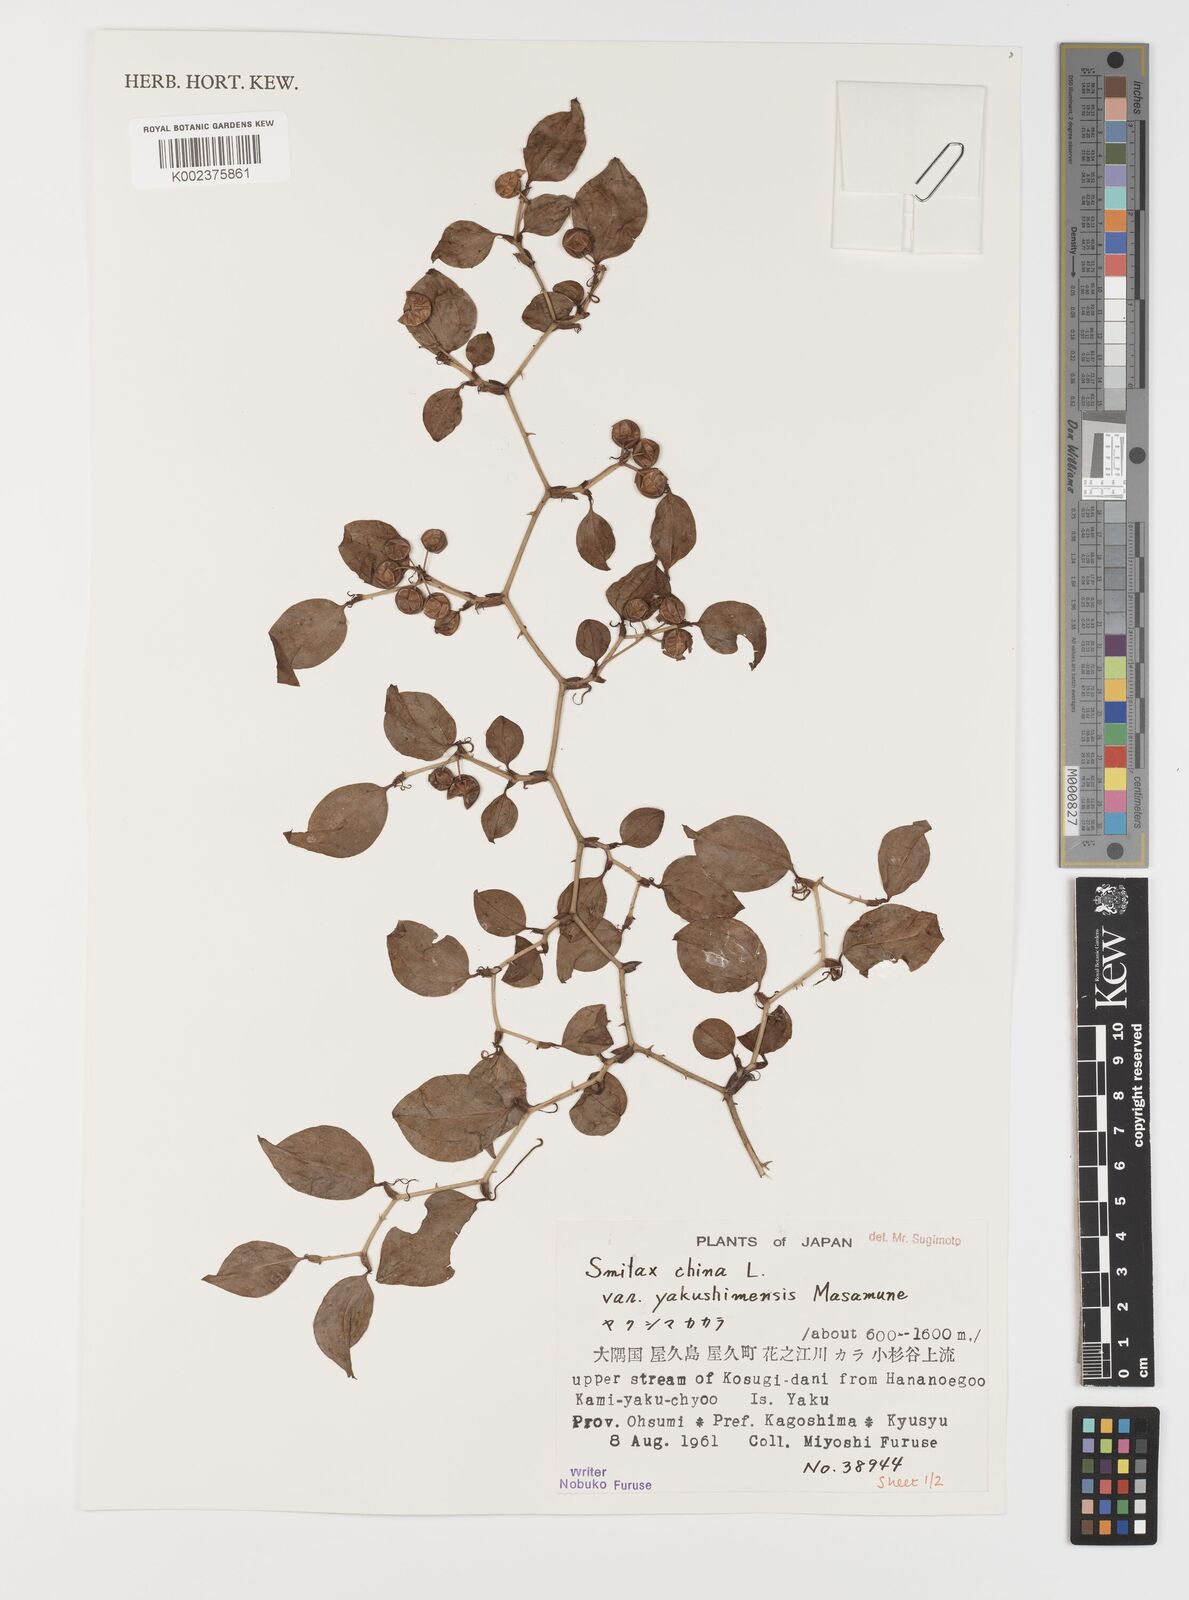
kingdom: Plantae
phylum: Tracheophyta
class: Liliopsida
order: Liliales
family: Smilacaceae
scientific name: Smilacaceae
